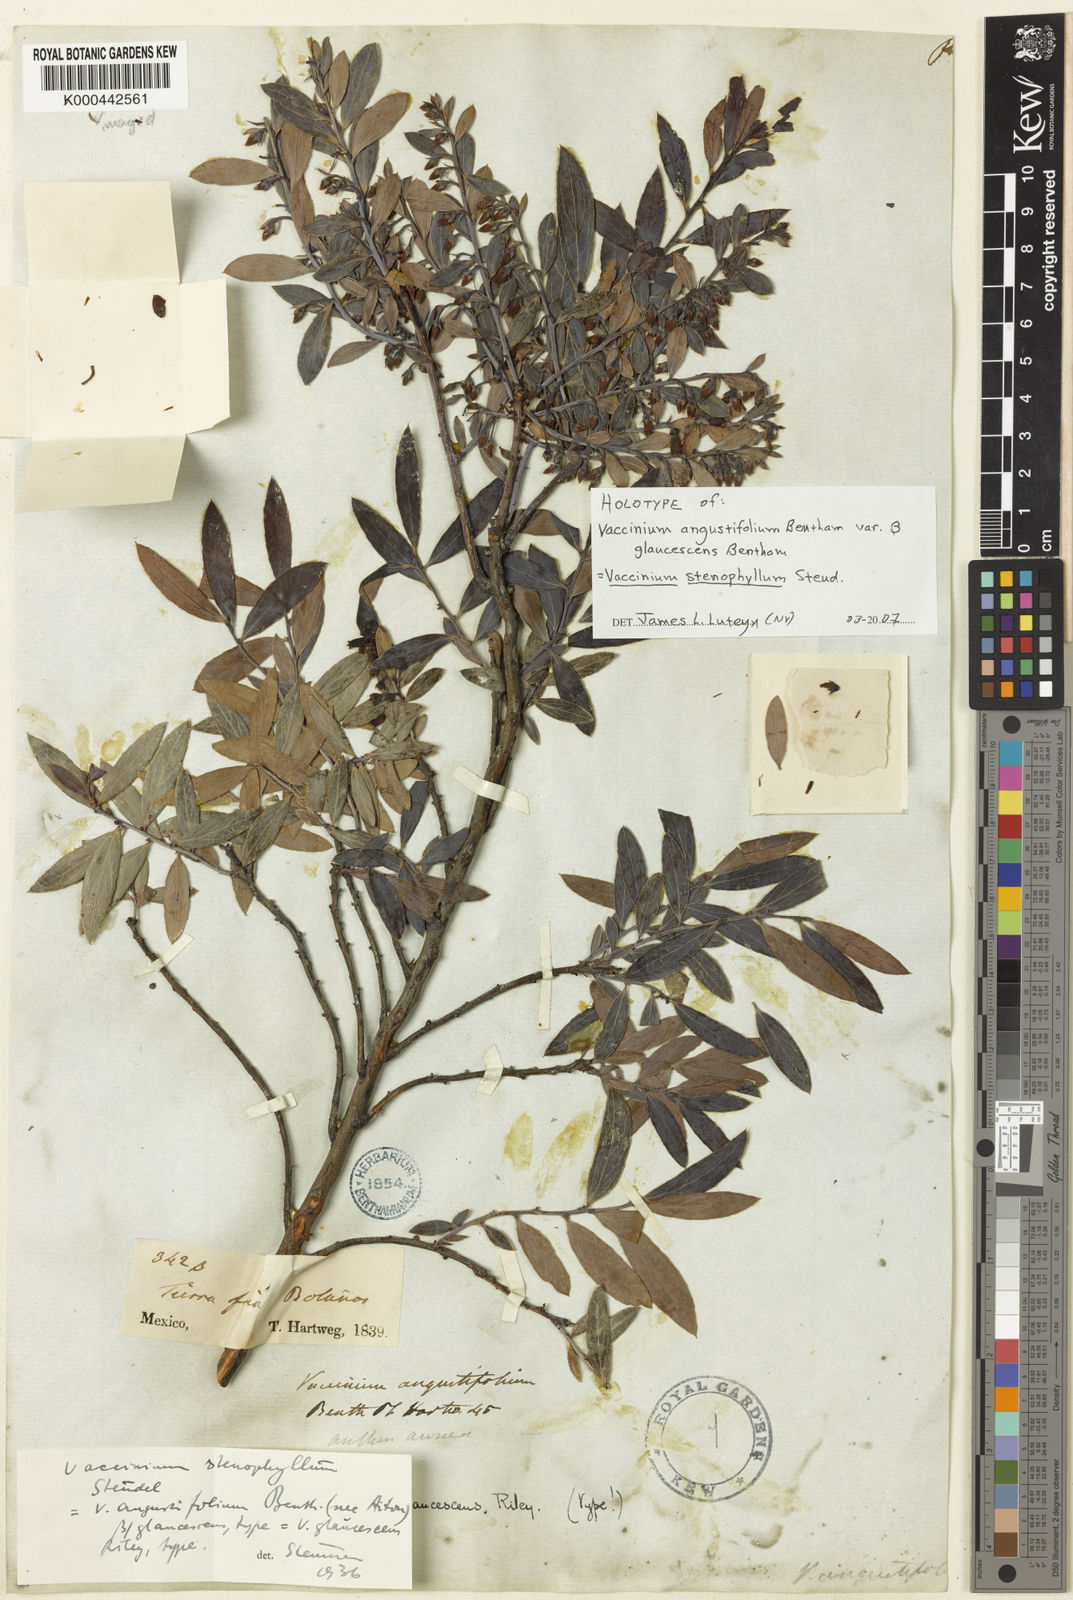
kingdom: Plantae
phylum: Tracheophyta
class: Magnoliopsida
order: Ericales
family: Ericaceae
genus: Vaccinium
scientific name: Vaccinium stenophyllum
